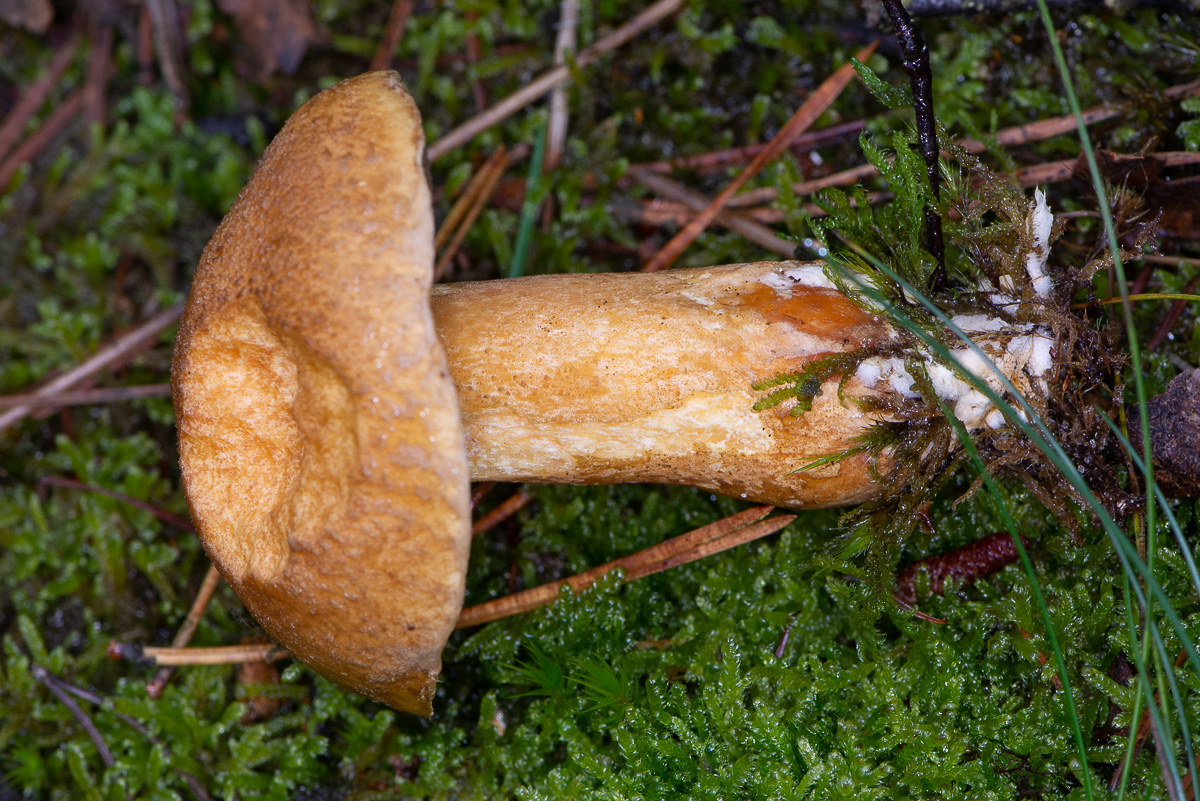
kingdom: Fungi
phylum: Basidiomycota
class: Agaricomycetes
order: Boletales
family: Suillaceae
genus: Suillus
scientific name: Suillus variegatus
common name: broget slimrørhat
